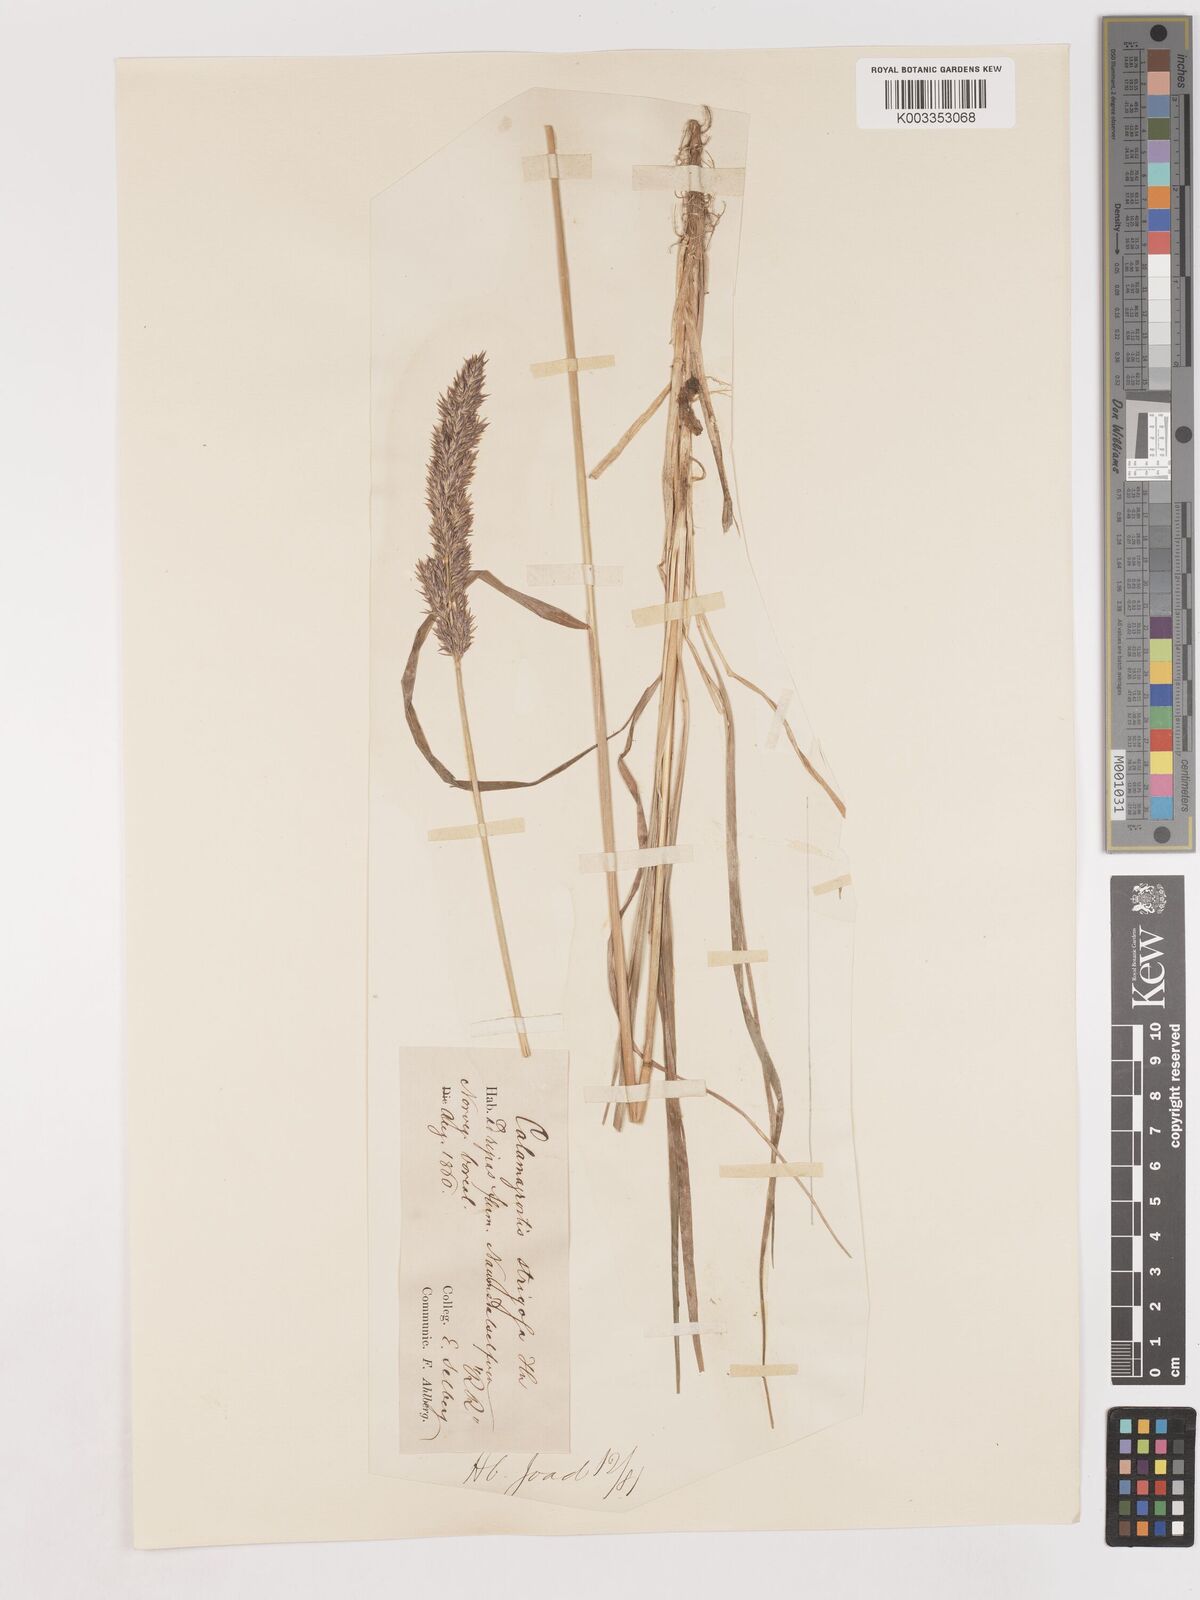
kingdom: Plantae
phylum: Tracheophyta
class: Liliopsida
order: Poales
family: Poaceae
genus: Calamagrostis
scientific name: Calamagrostis epigejos
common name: Wood small-reed
